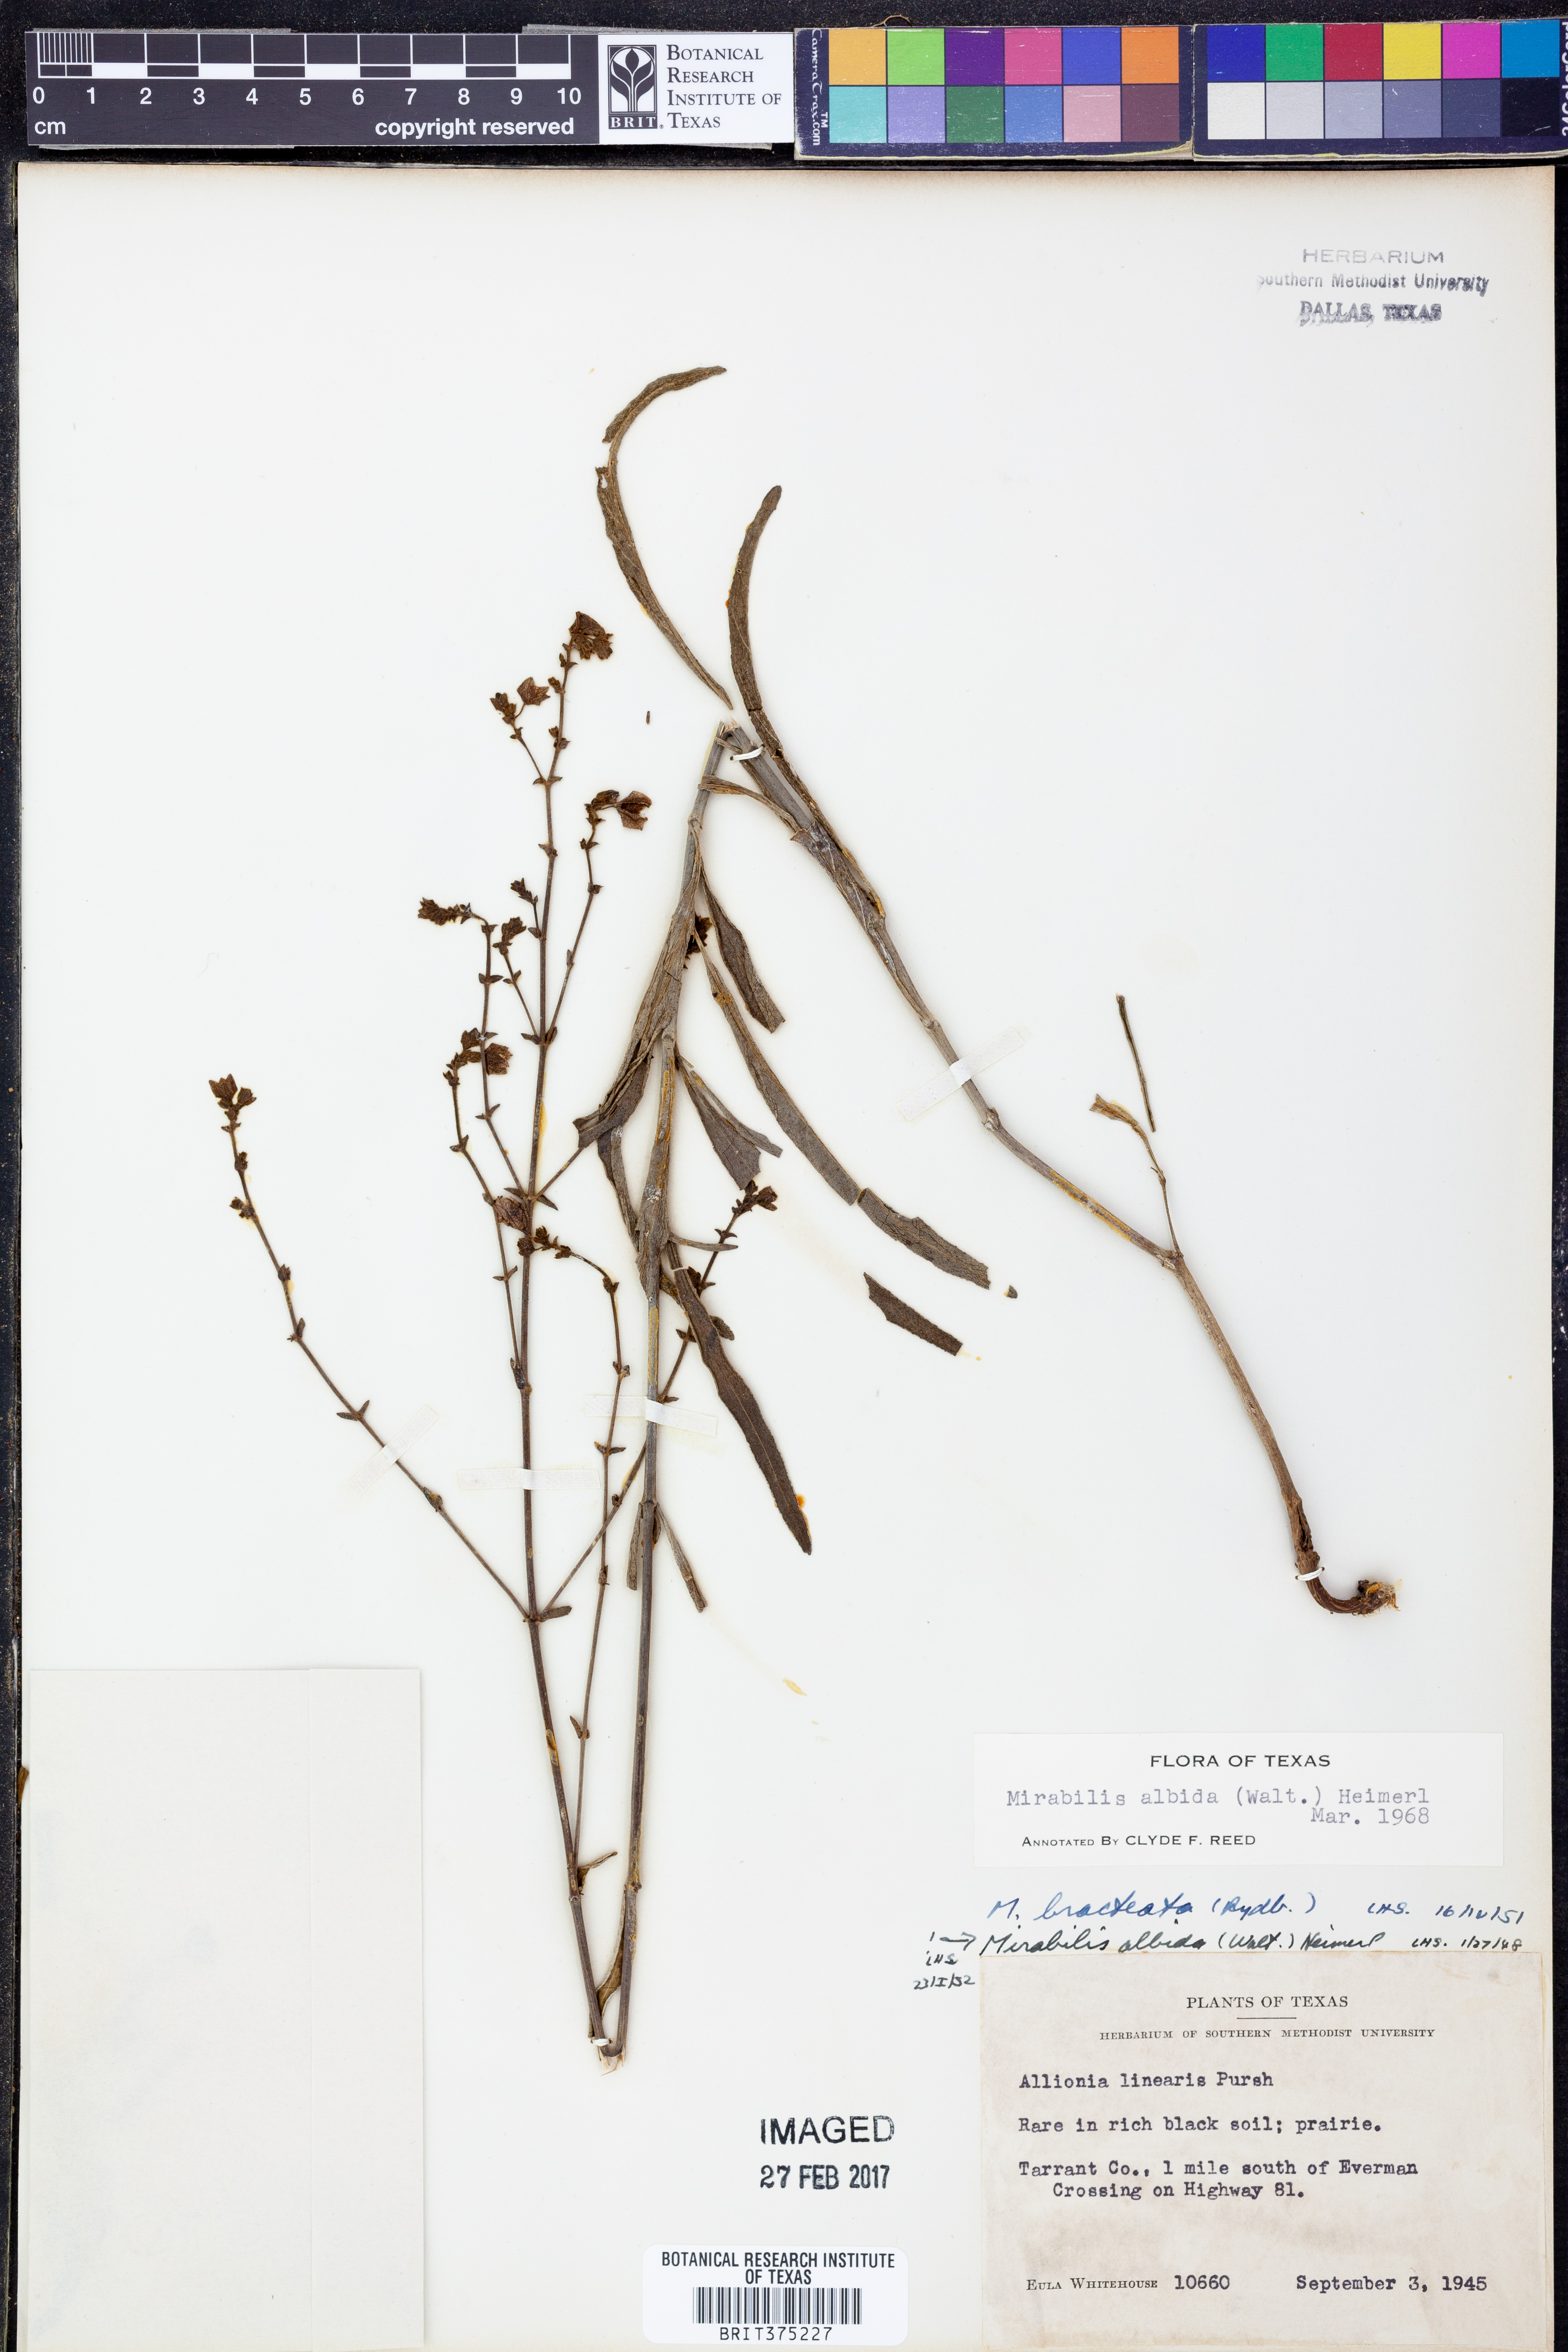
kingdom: Plantae
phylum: Tracheophyta
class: Magnoliopsida
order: Caryophyllales
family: Nyctaginaceae
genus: Mirabilis
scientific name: Mirabilis albida
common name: Hairy four-o'clock
